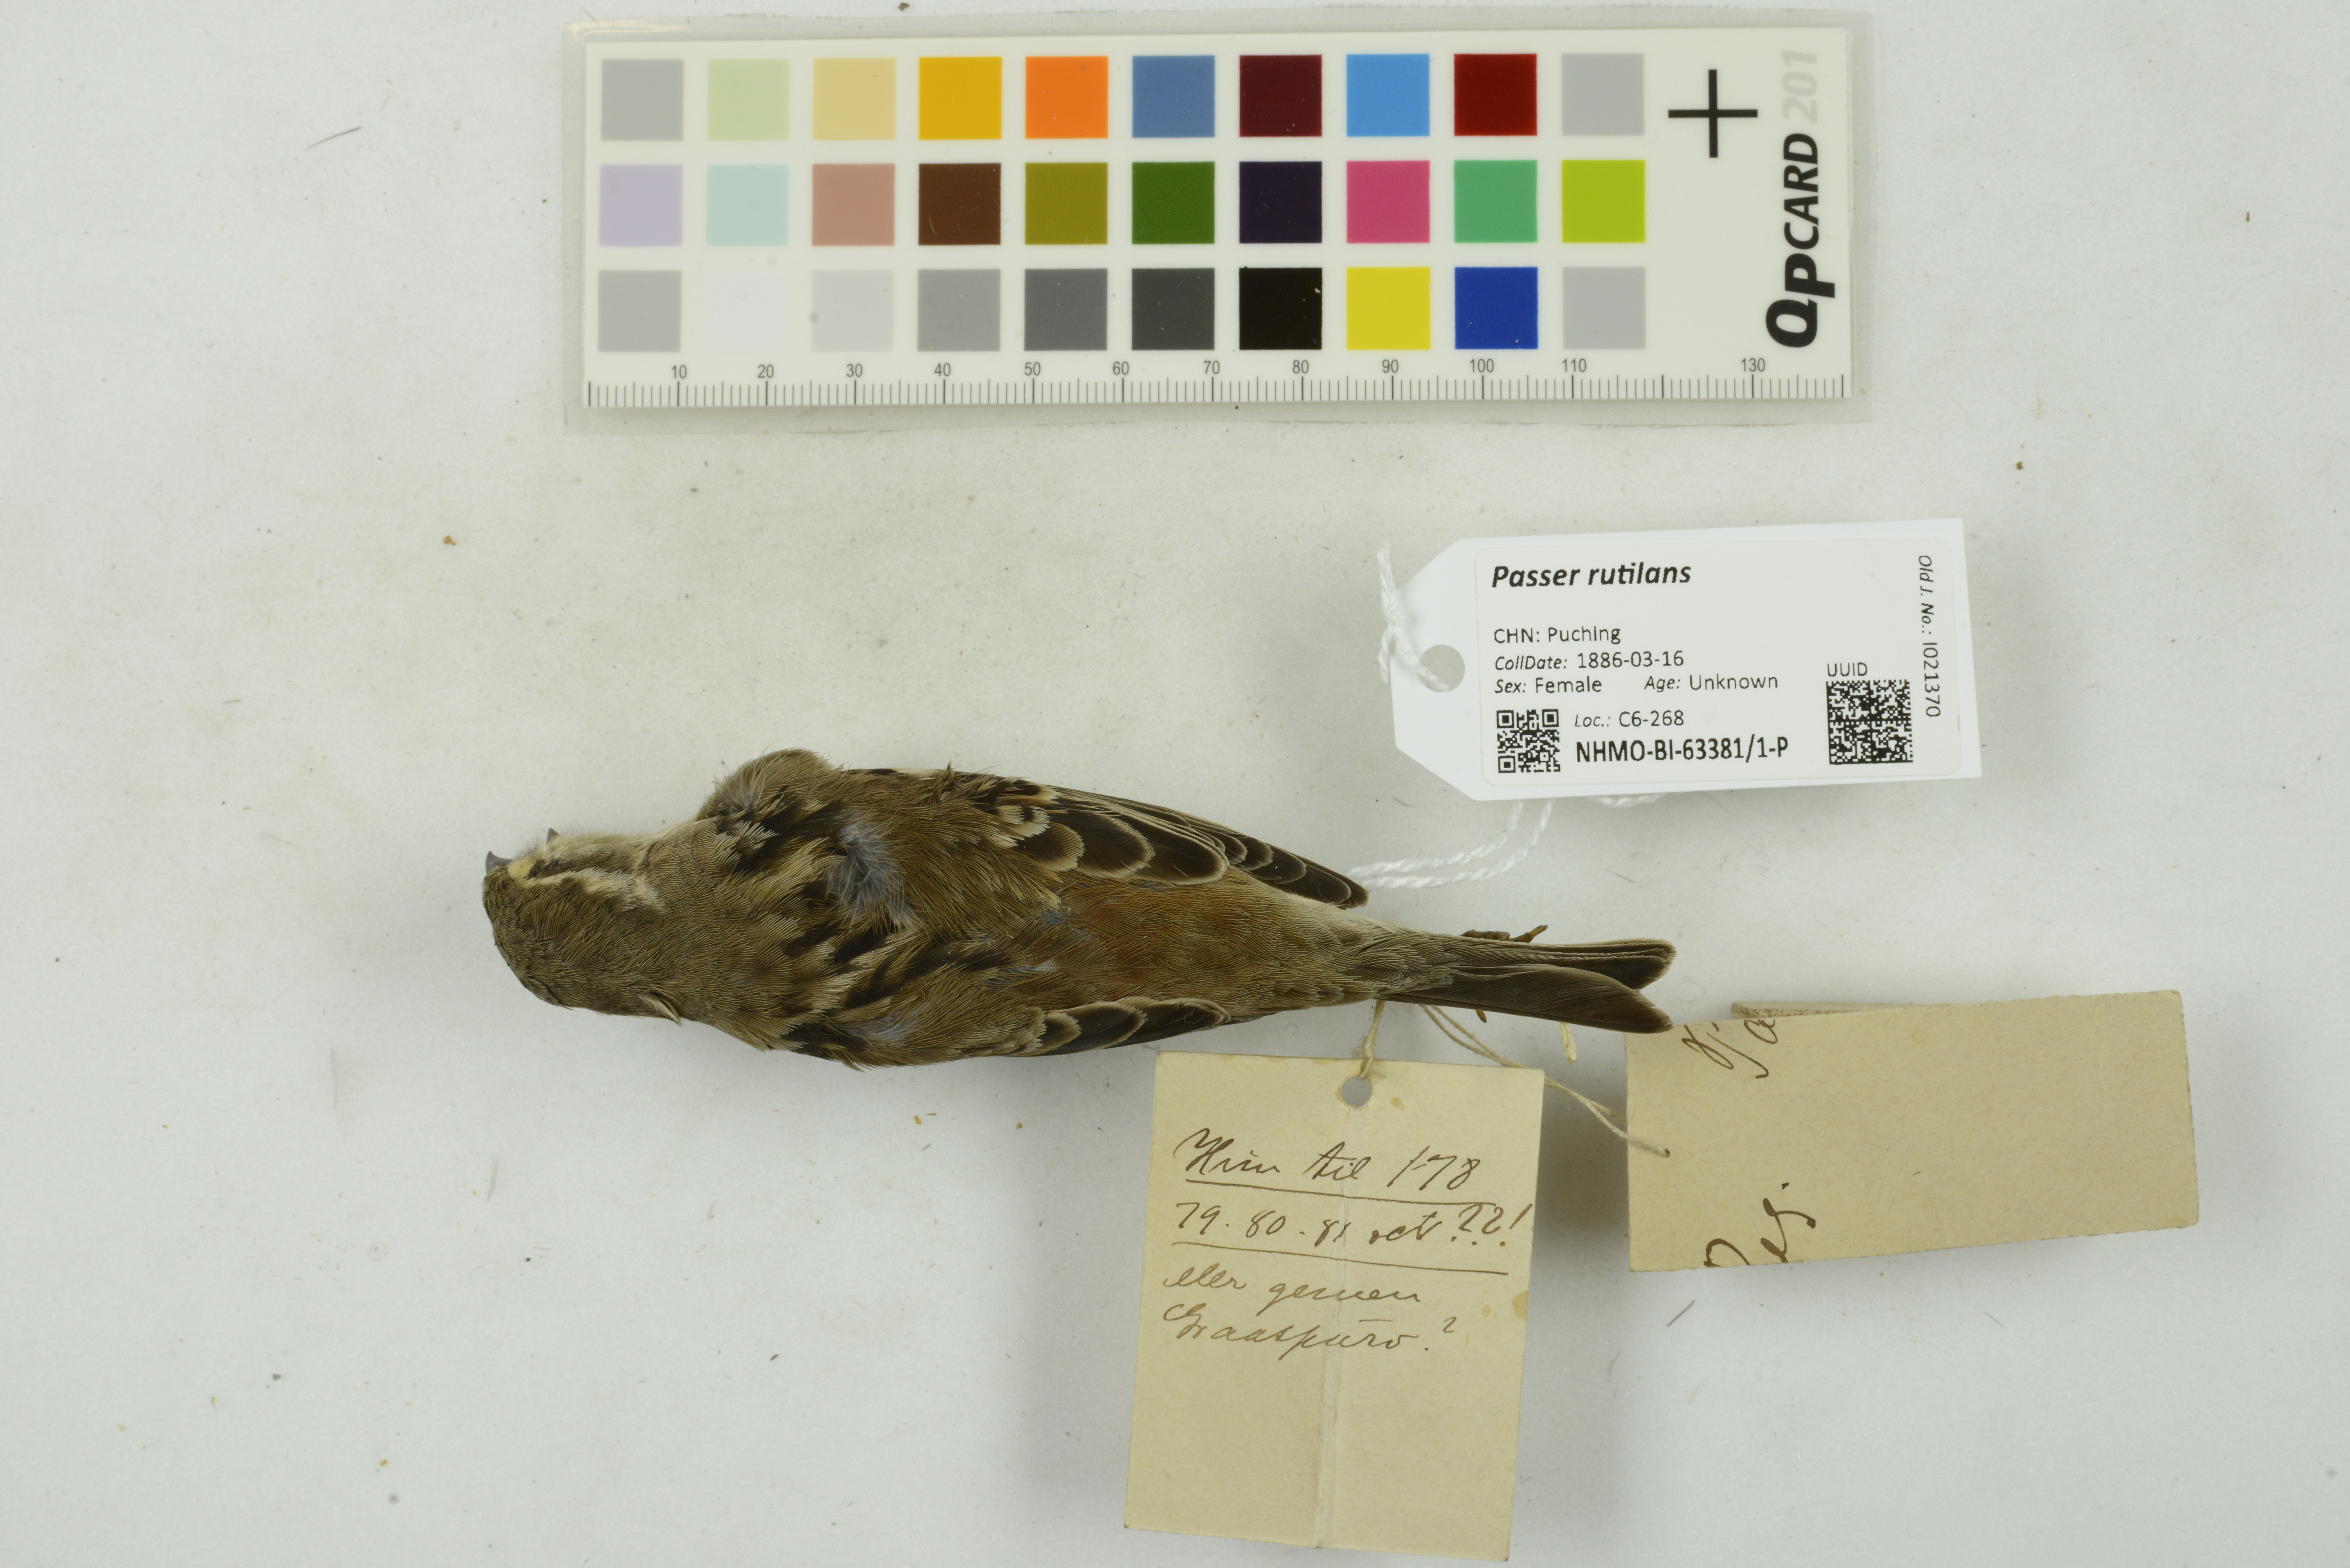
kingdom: Animalia
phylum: Chordata
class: Aves
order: Passeriformes
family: Passeridae
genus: Passer
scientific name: Passer rutilans
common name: Russet sparrow
